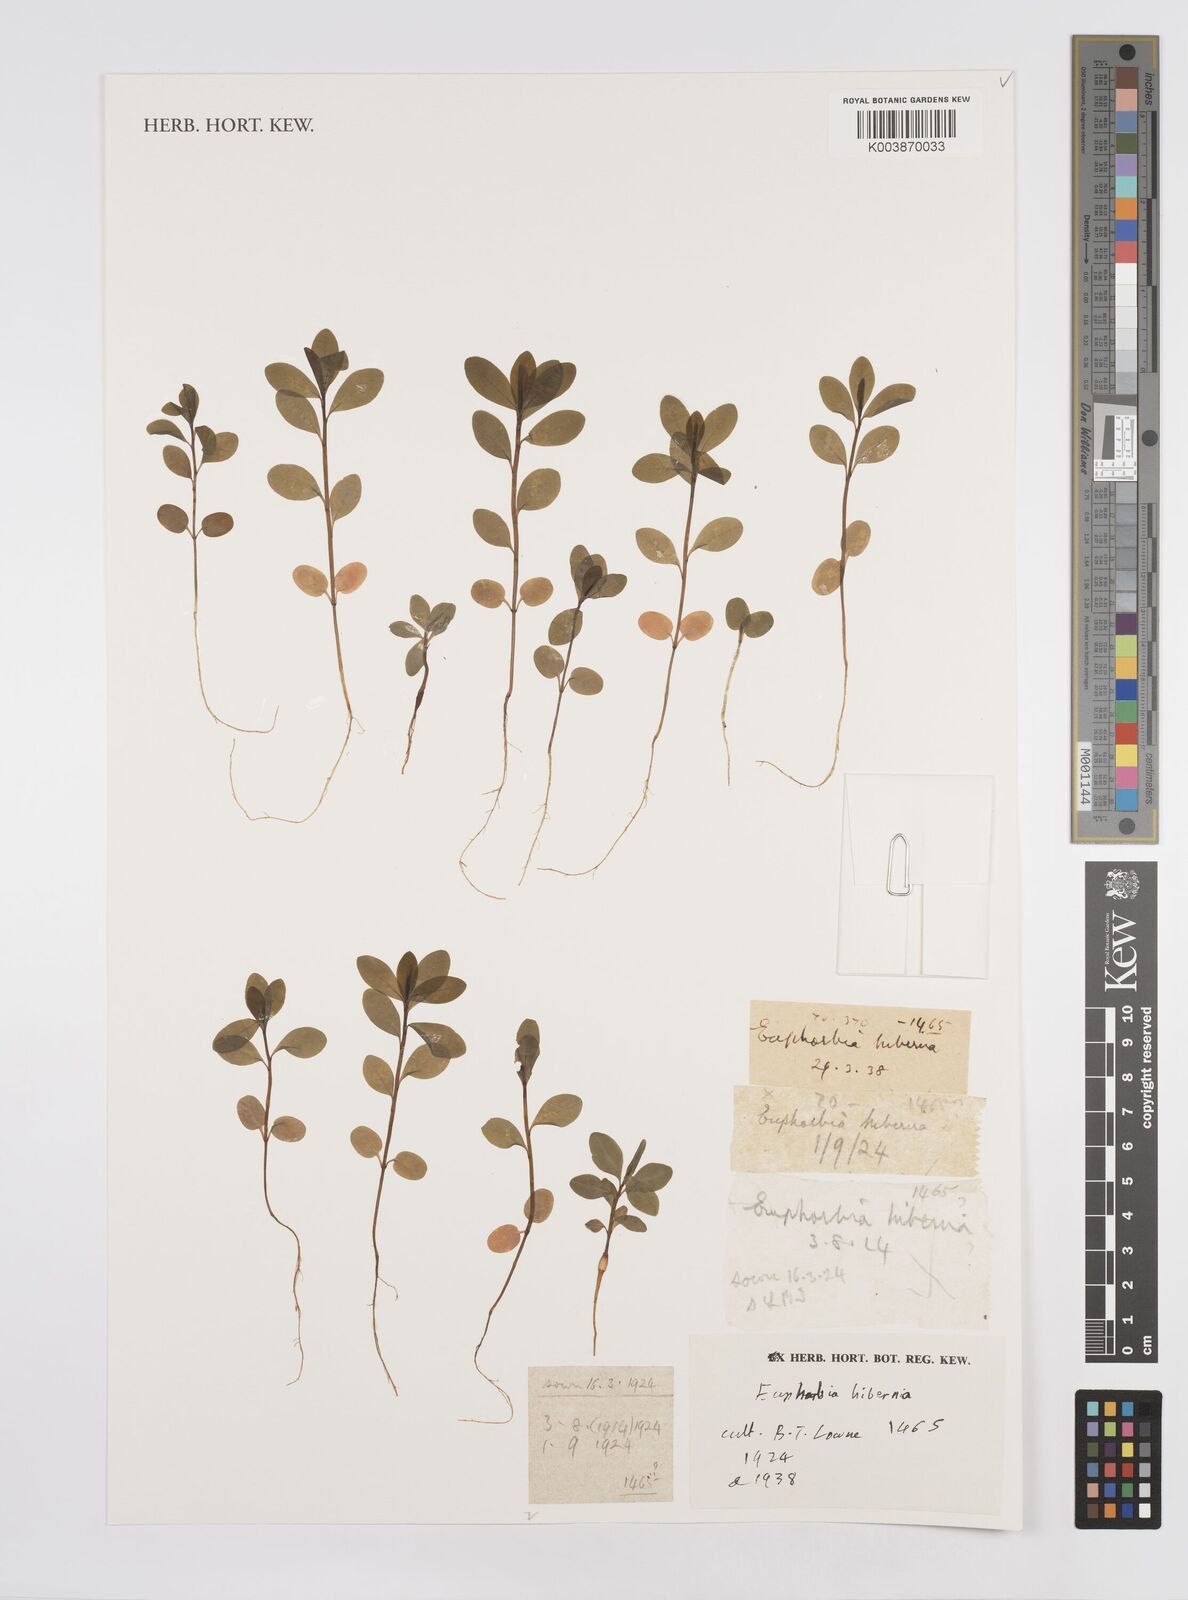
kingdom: Plantae
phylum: Tracheophyta
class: Magnoliopsida
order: Malpighiales
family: Euphorbiaceae
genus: Euphorbia
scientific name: Euphorbia hyberna
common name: Irish spurge
